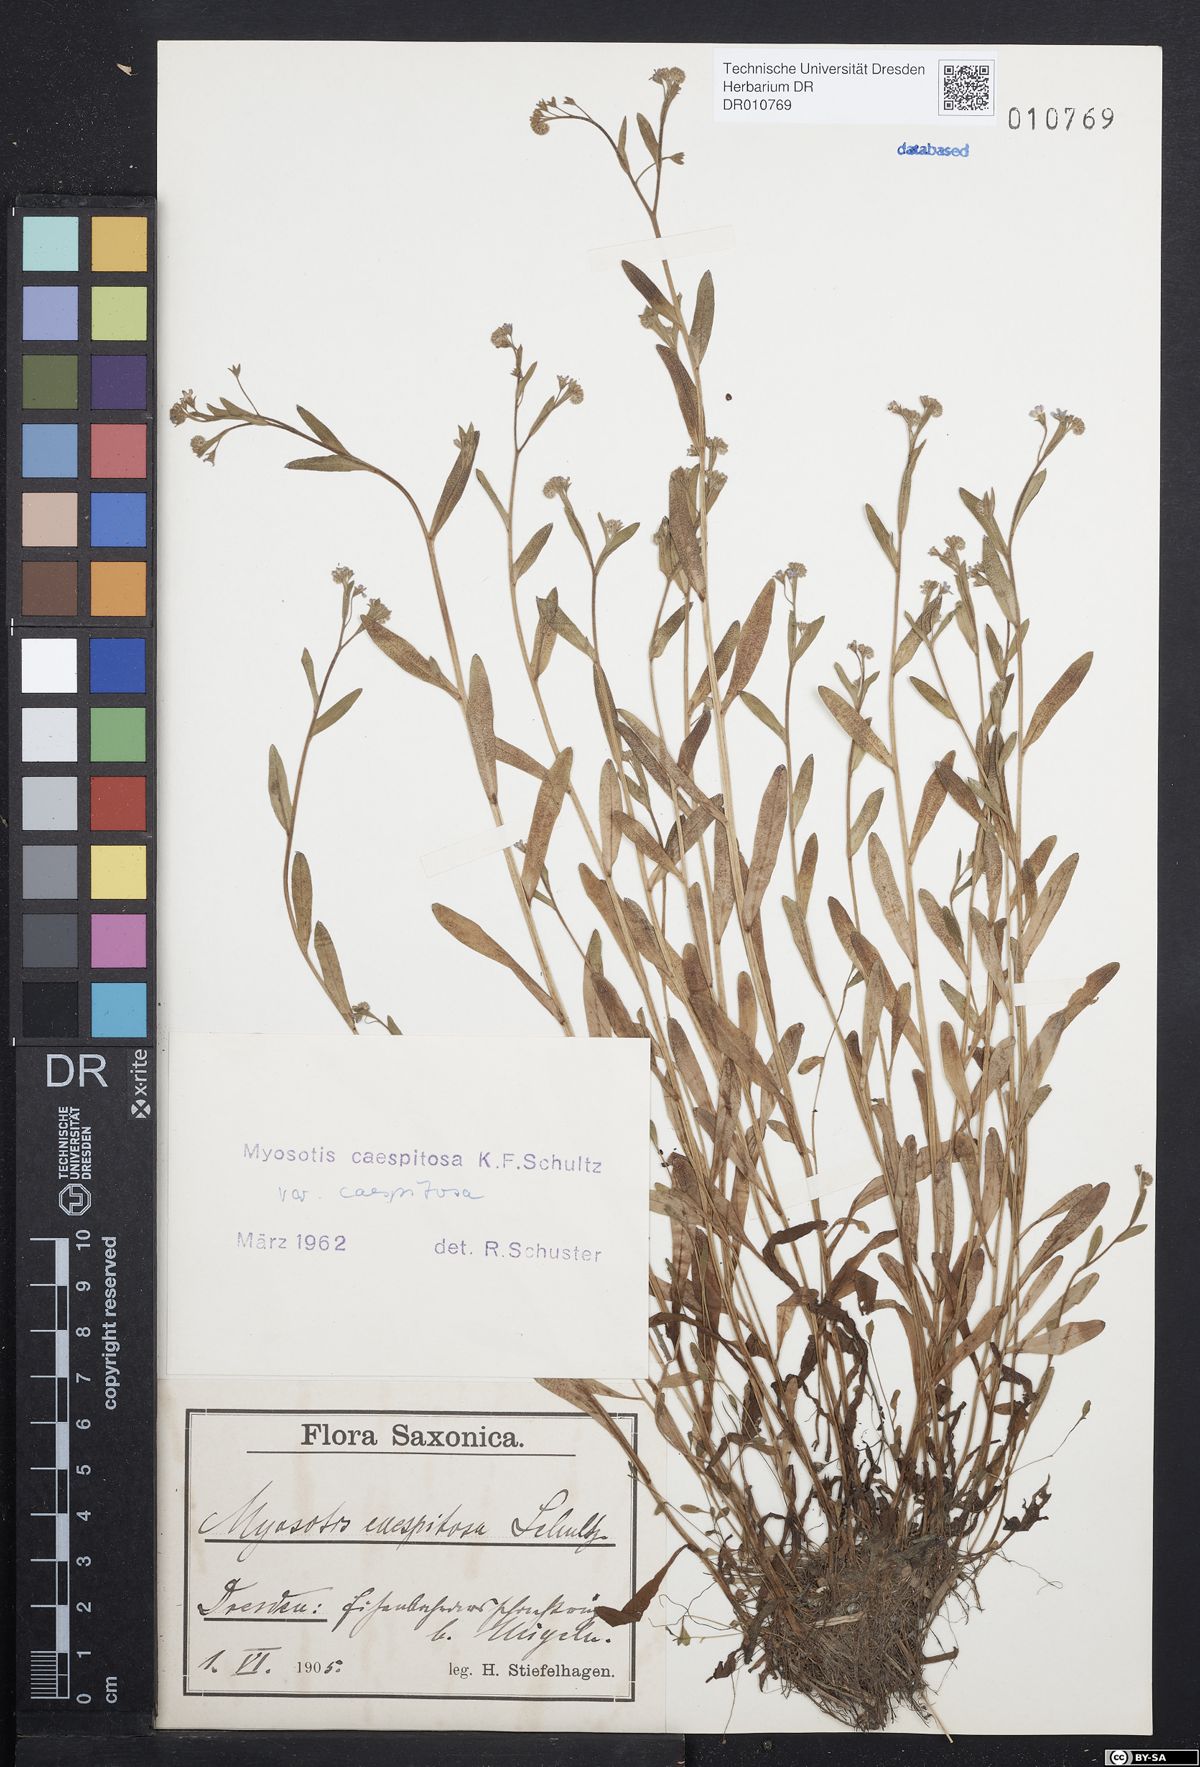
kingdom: Plantae
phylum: Tracheophyta
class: Magnoliopsida
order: Boraginales
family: Boraginaceae
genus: Myosotis
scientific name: Myosotis laxa
